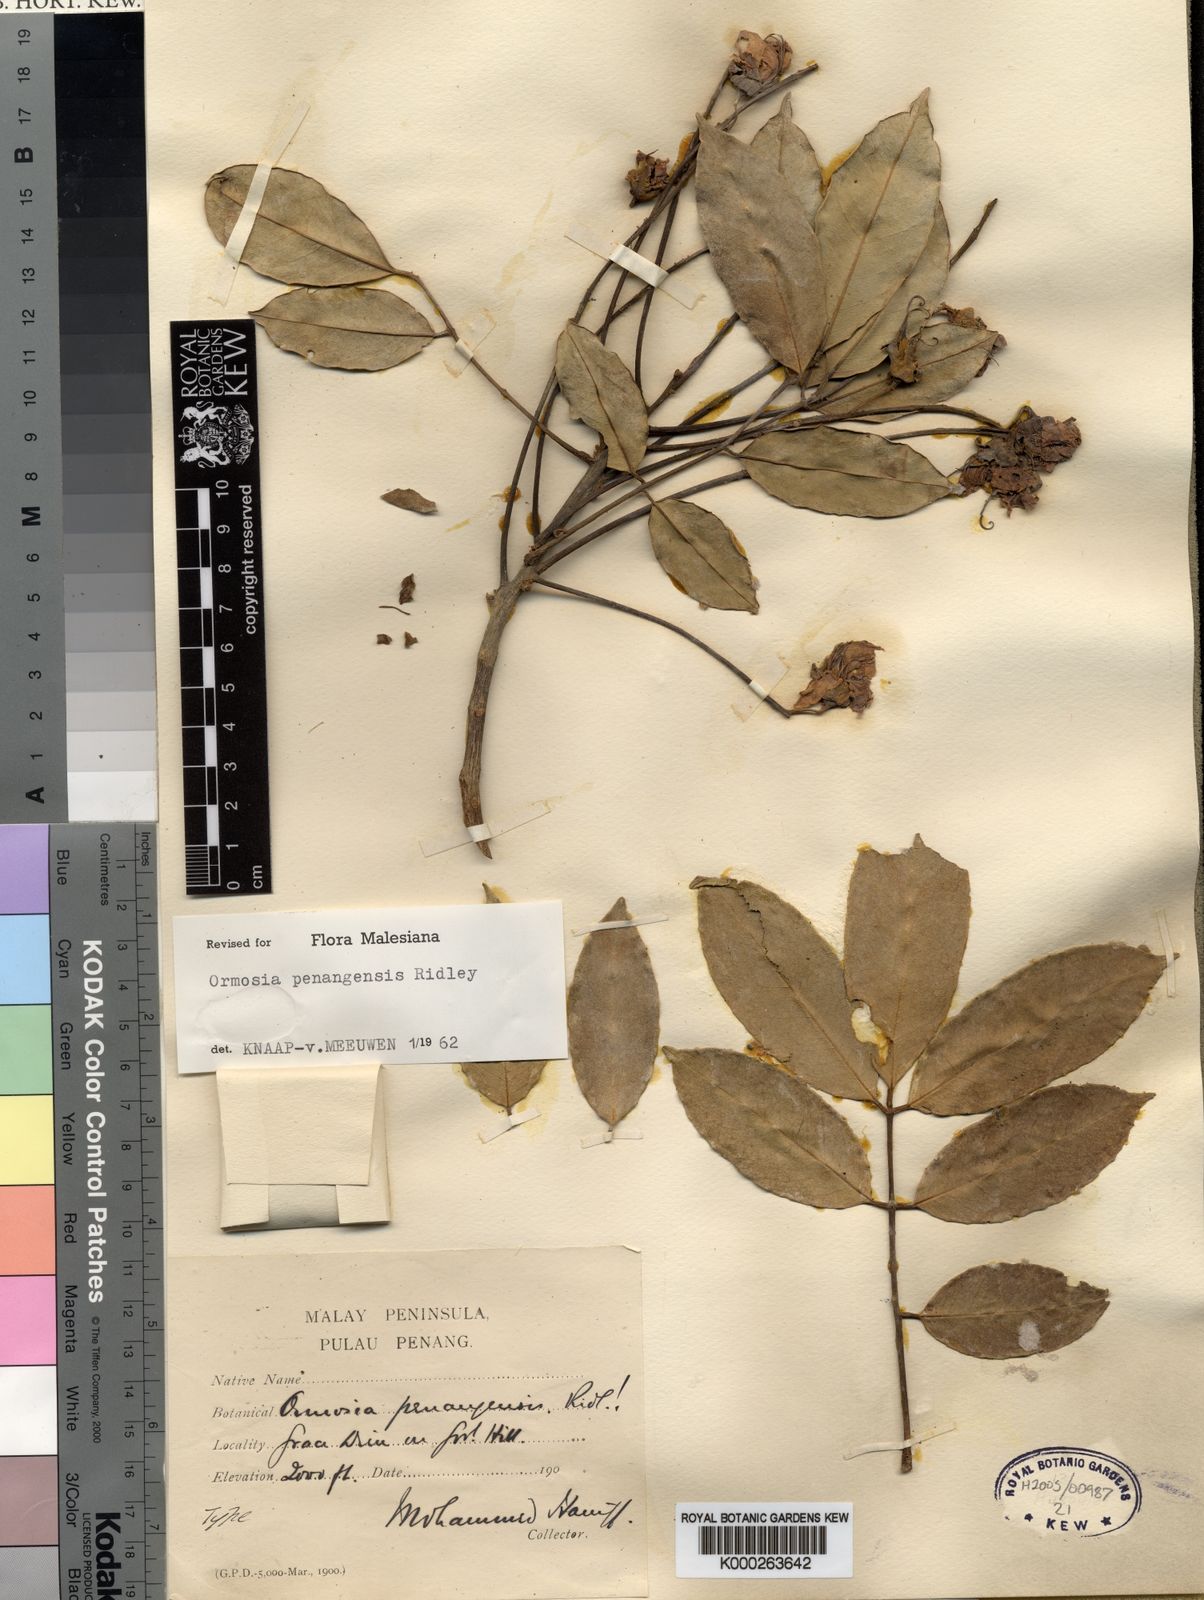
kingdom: Plantae
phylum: Tracheophyta
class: Magnoliopsida
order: Fabales
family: Fabaceae
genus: Ormosia
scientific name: Ormosia penangensis
